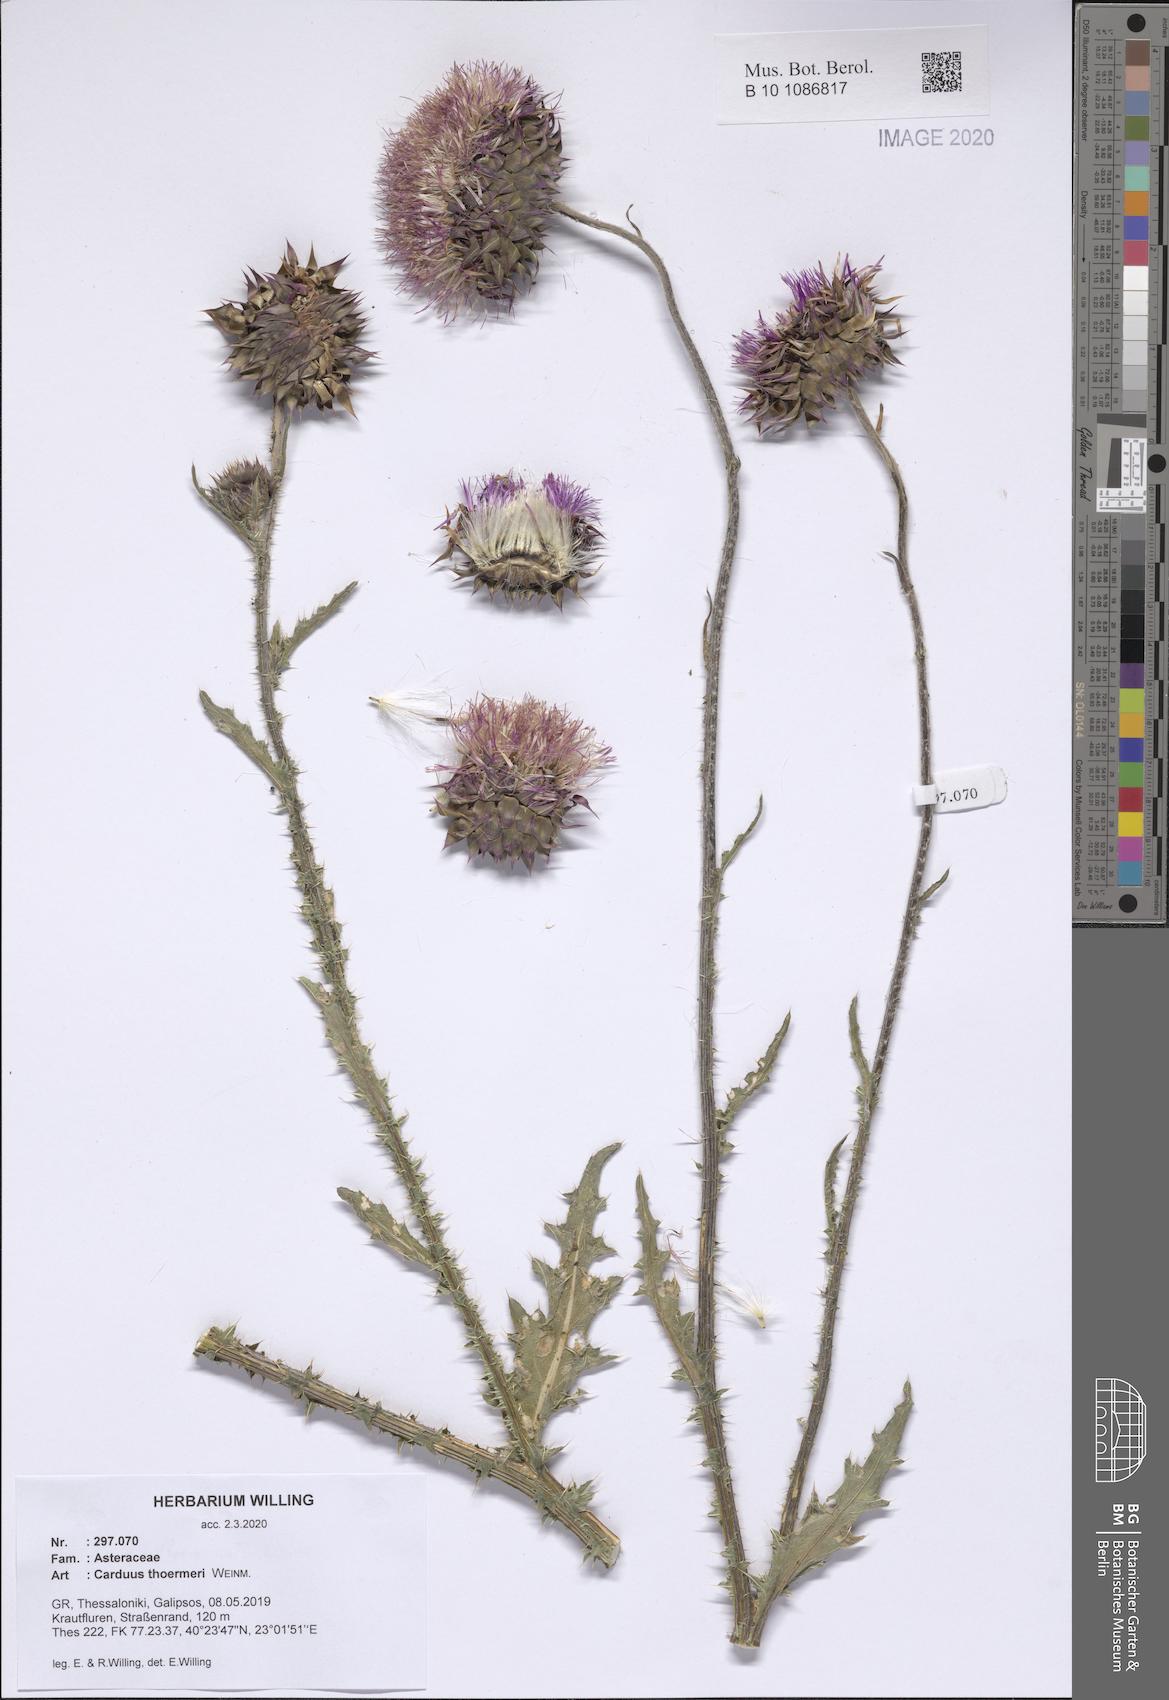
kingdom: Plantae
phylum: Tracheophyta
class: Magnoliopsida
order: Asterales
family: Asteraceae
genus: Carduus
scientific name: Carduus nutans
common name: Musk thistle
